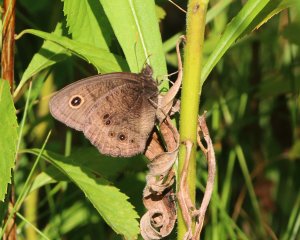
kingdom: Animalia
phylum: Arthropoda
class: Insecta
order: Lepidoptera
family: Nymphalidae
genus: Cercyonis
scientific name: Cercyonis pegala
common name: Common Wood-Nymph
